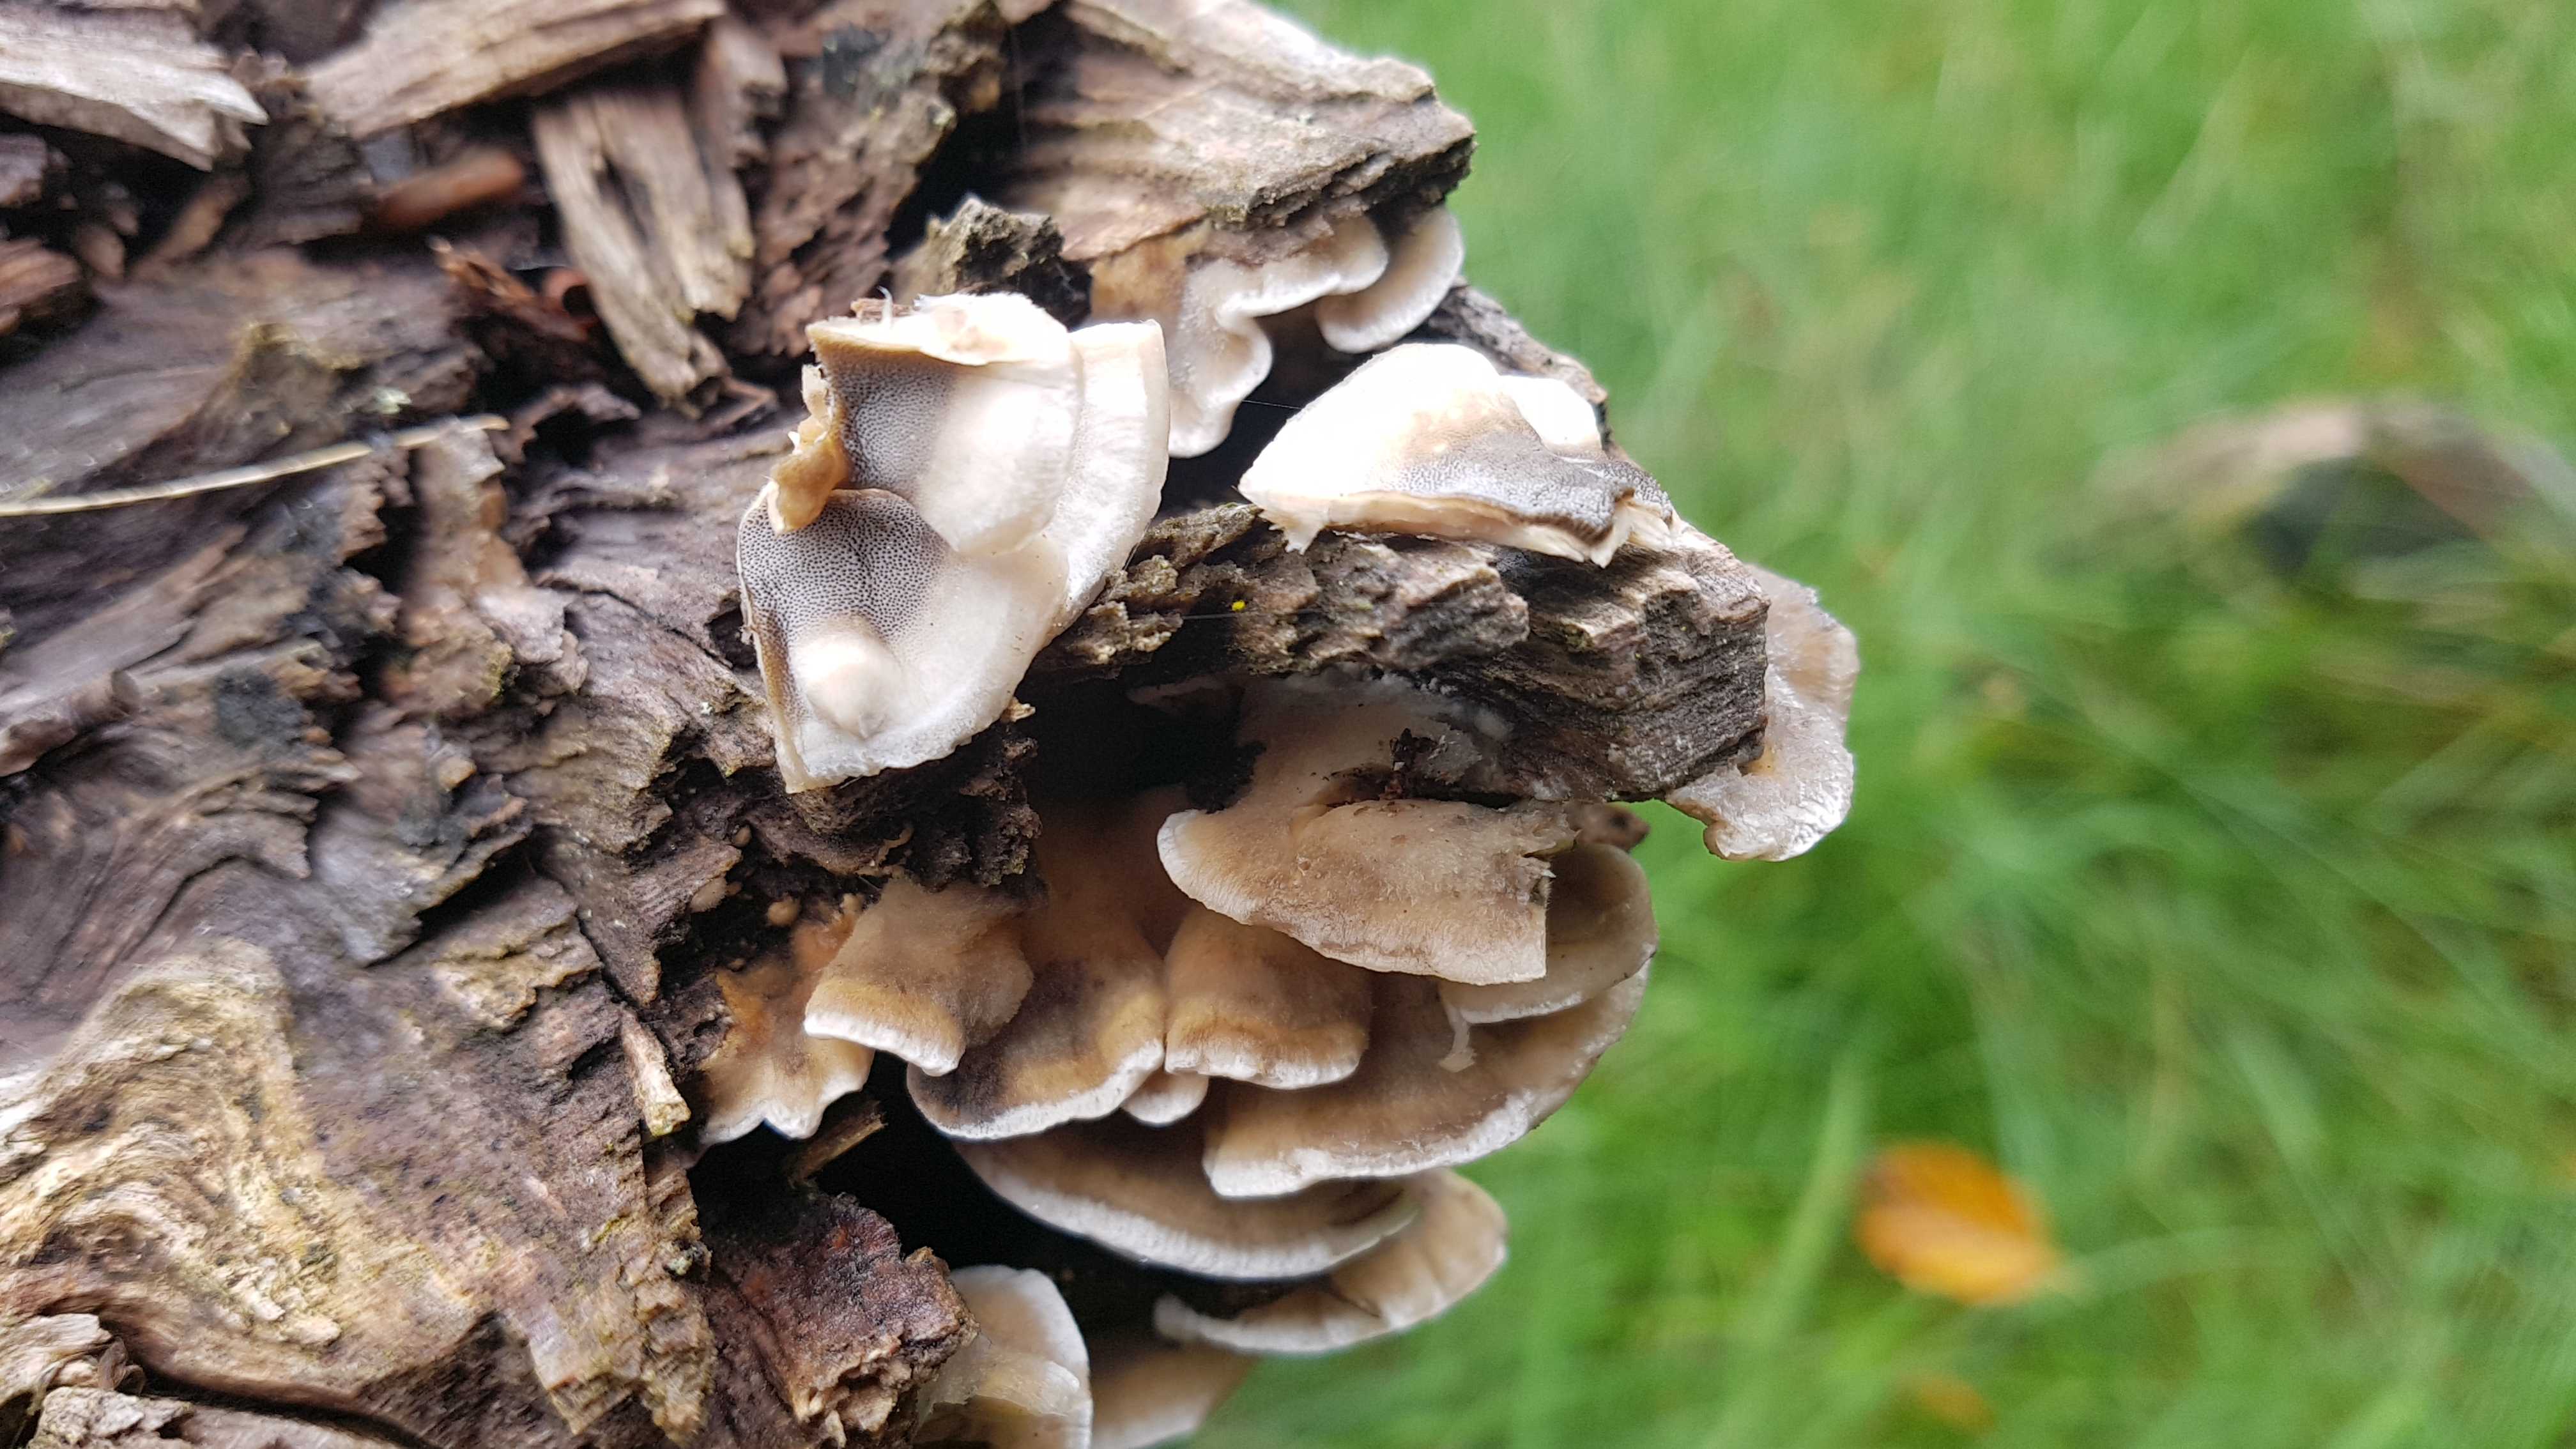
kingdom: Fungi
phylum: Basidiomycota
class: Agaricomycetes
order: Polyporales
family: Phanerochaetaceae
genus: Bjerkandera
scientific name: Bjerkandera adusta
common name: sveden sodporesvamp
